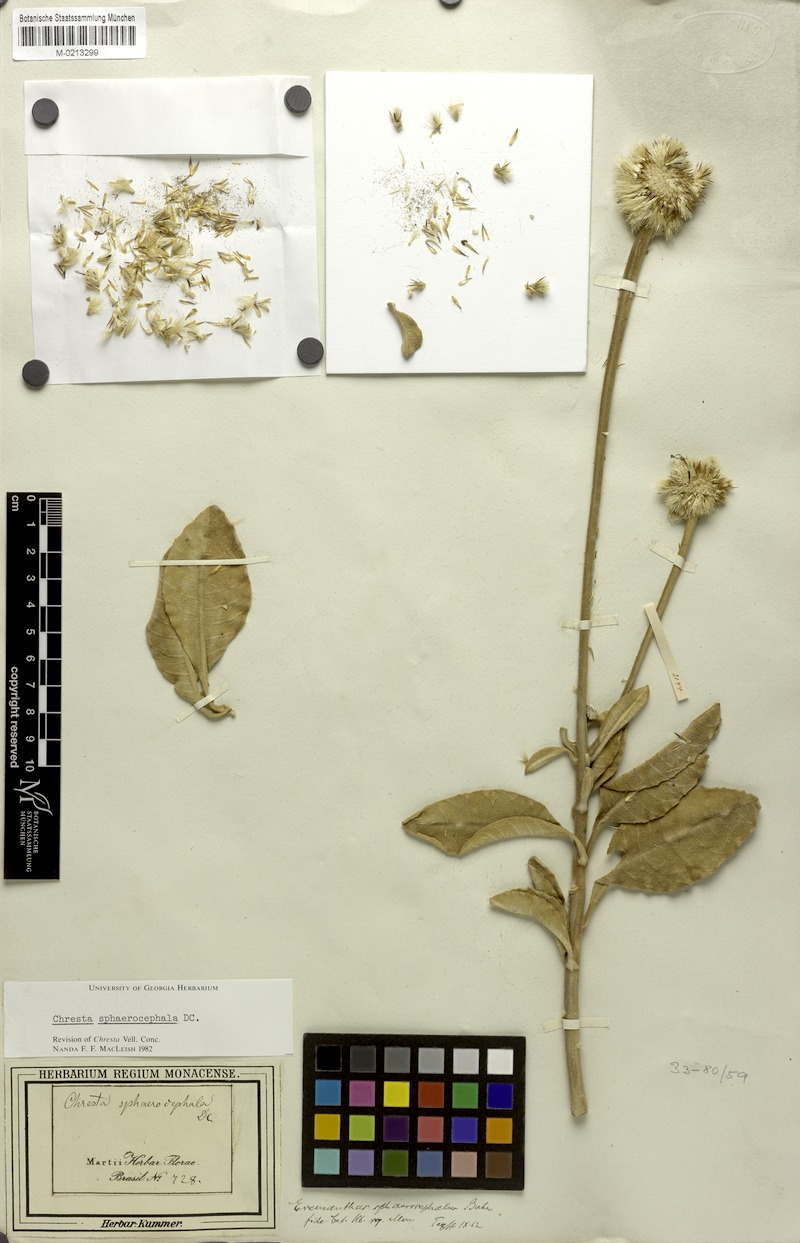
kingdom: Plantae
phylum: Tracheophyta
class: Magnoliopsida
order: Asterales
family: Asteraceae
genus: Chresta
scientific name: Chresta sphaerocephala
